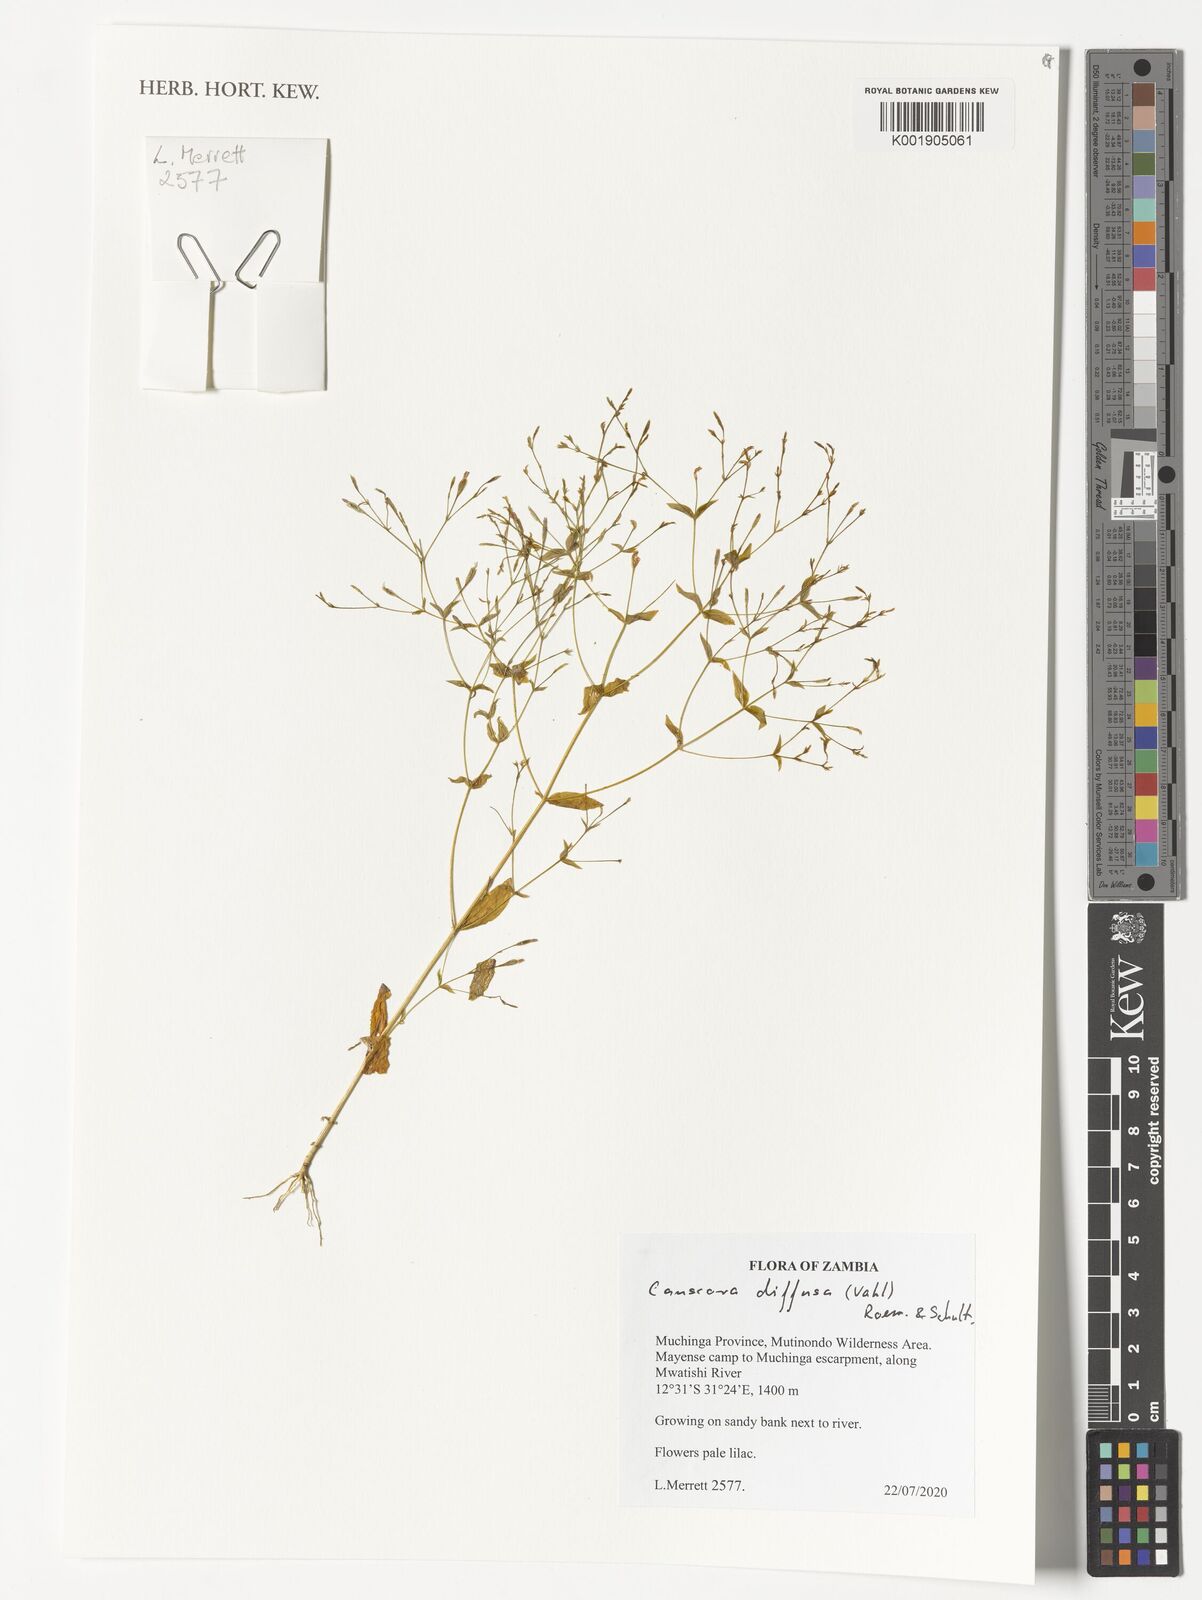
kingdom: Plantae
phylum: Tracheophyta
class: Magnoliopsida
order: Gentianales
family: Gentianaceae
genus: Canscora
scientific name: Canscora diffusa
